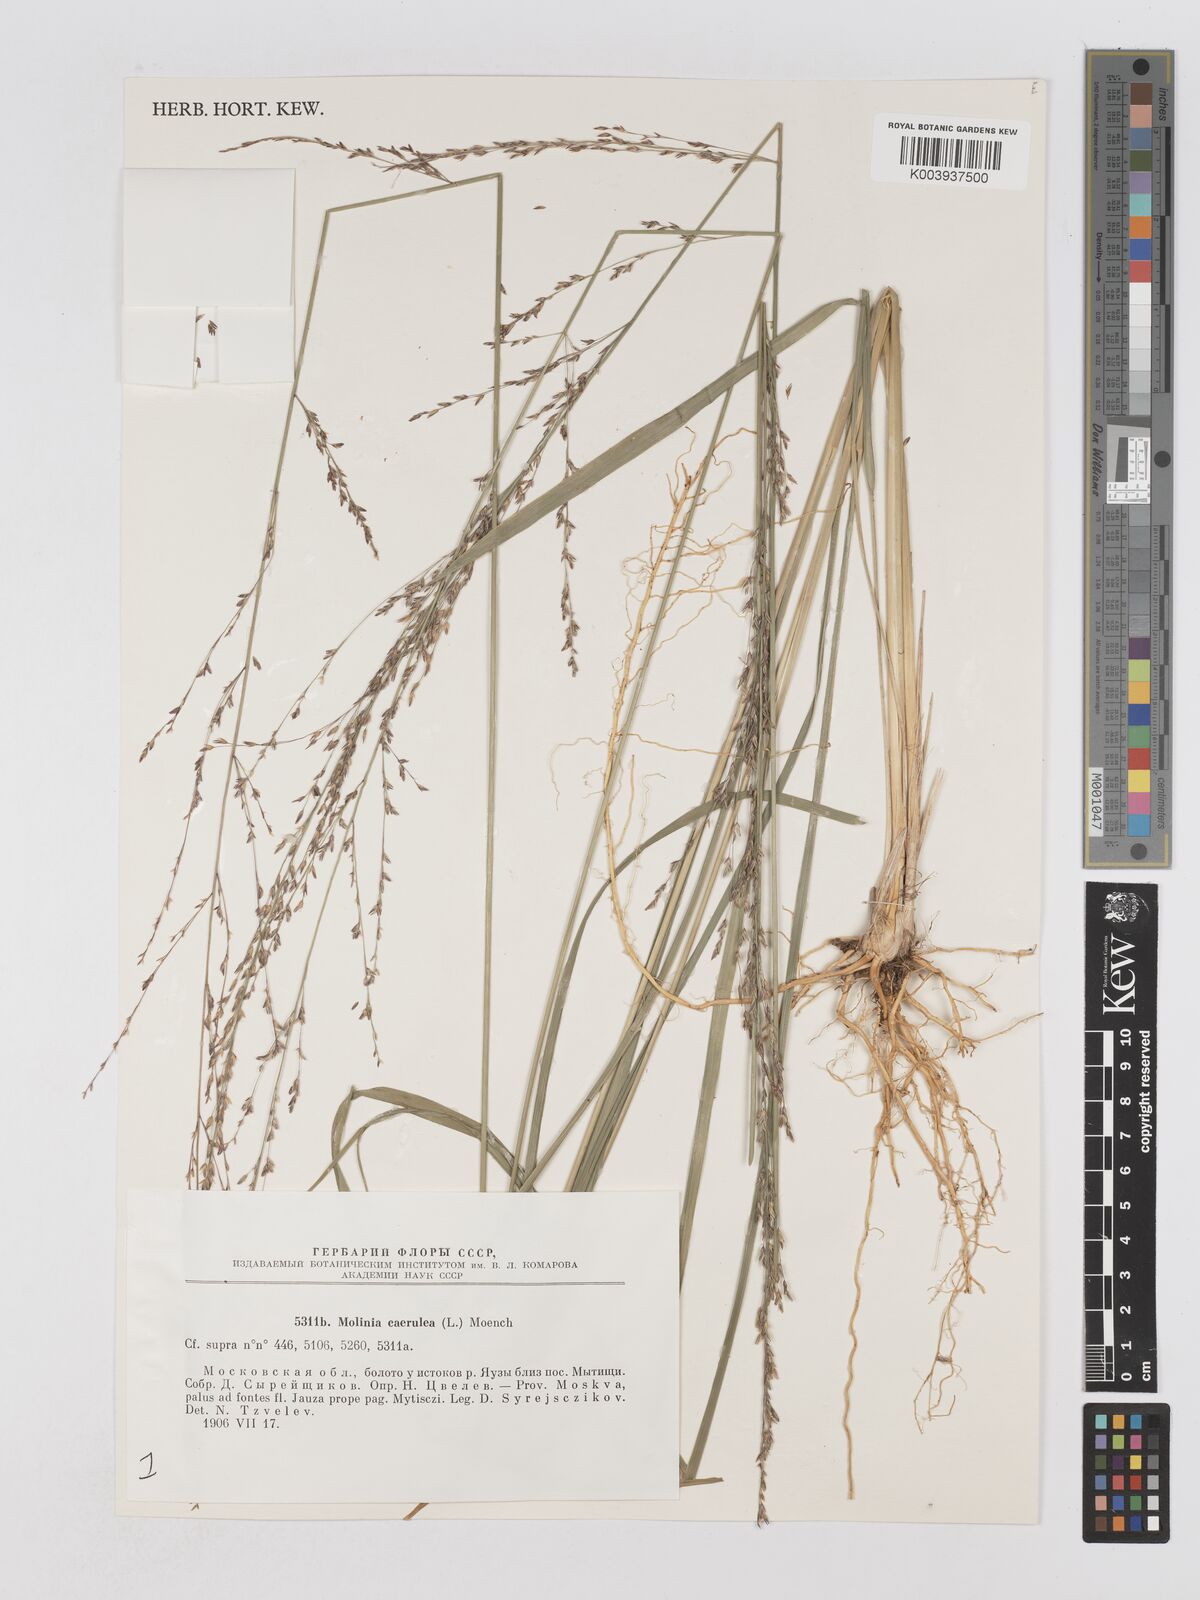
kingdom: Plantae
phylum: Tracheophyta
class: Liliopsida
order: Poales
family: Poaceae
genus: Molinia
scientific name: Molinia caerulea
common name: Purple moor-grass
